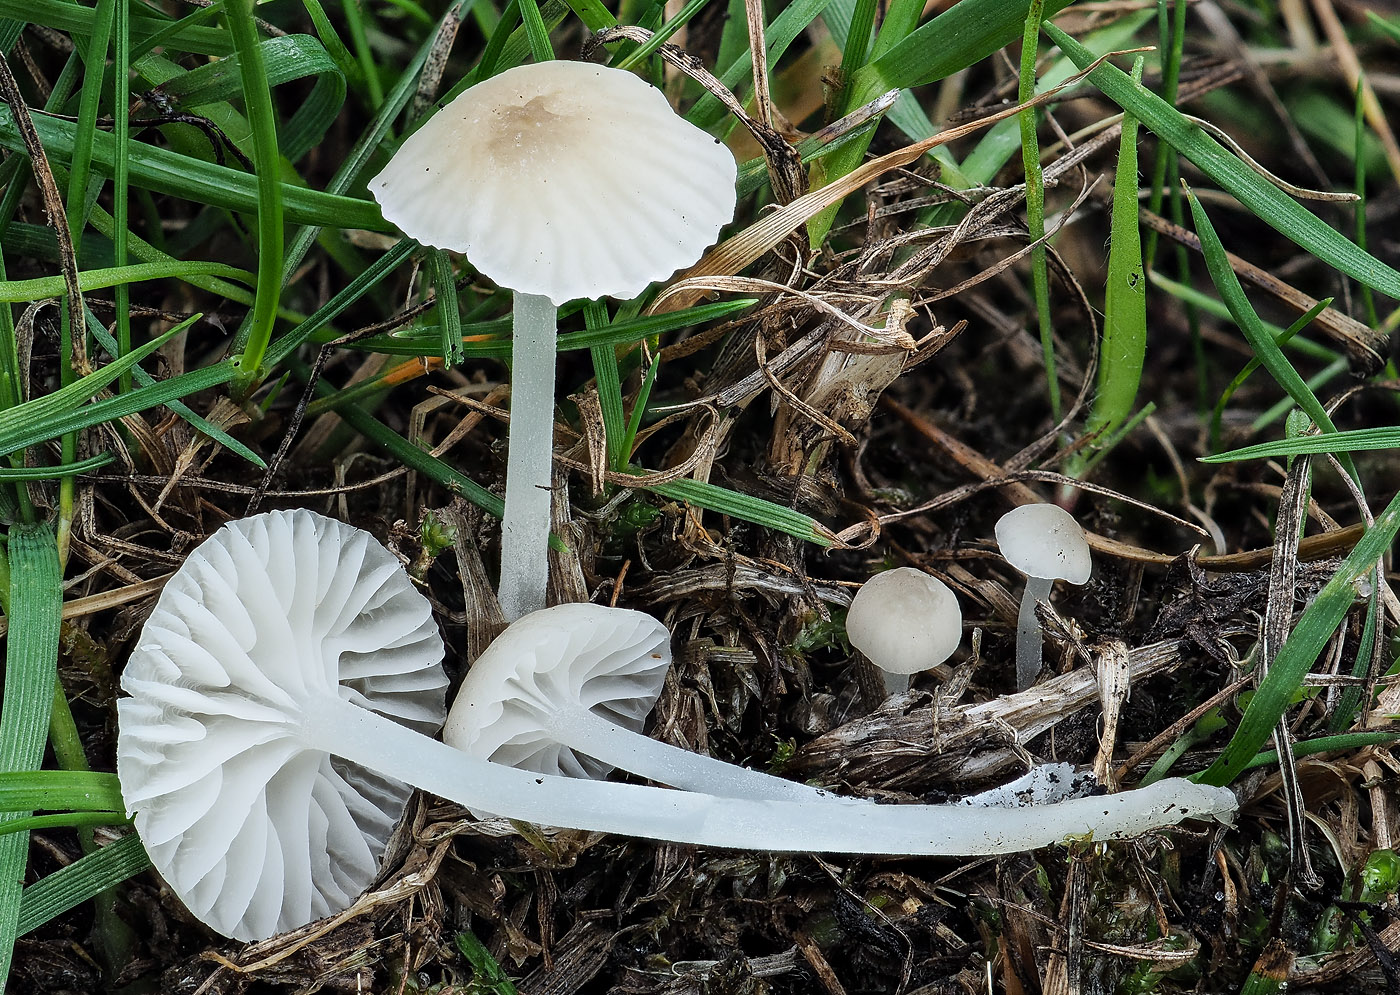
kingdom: Fungi
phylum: Basidiomycota
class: Agaricomycetes
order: Agaricales
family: Mycenaceae
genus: Hemimycena
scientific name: Hemimycena mairei
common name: voks-huesvamp
